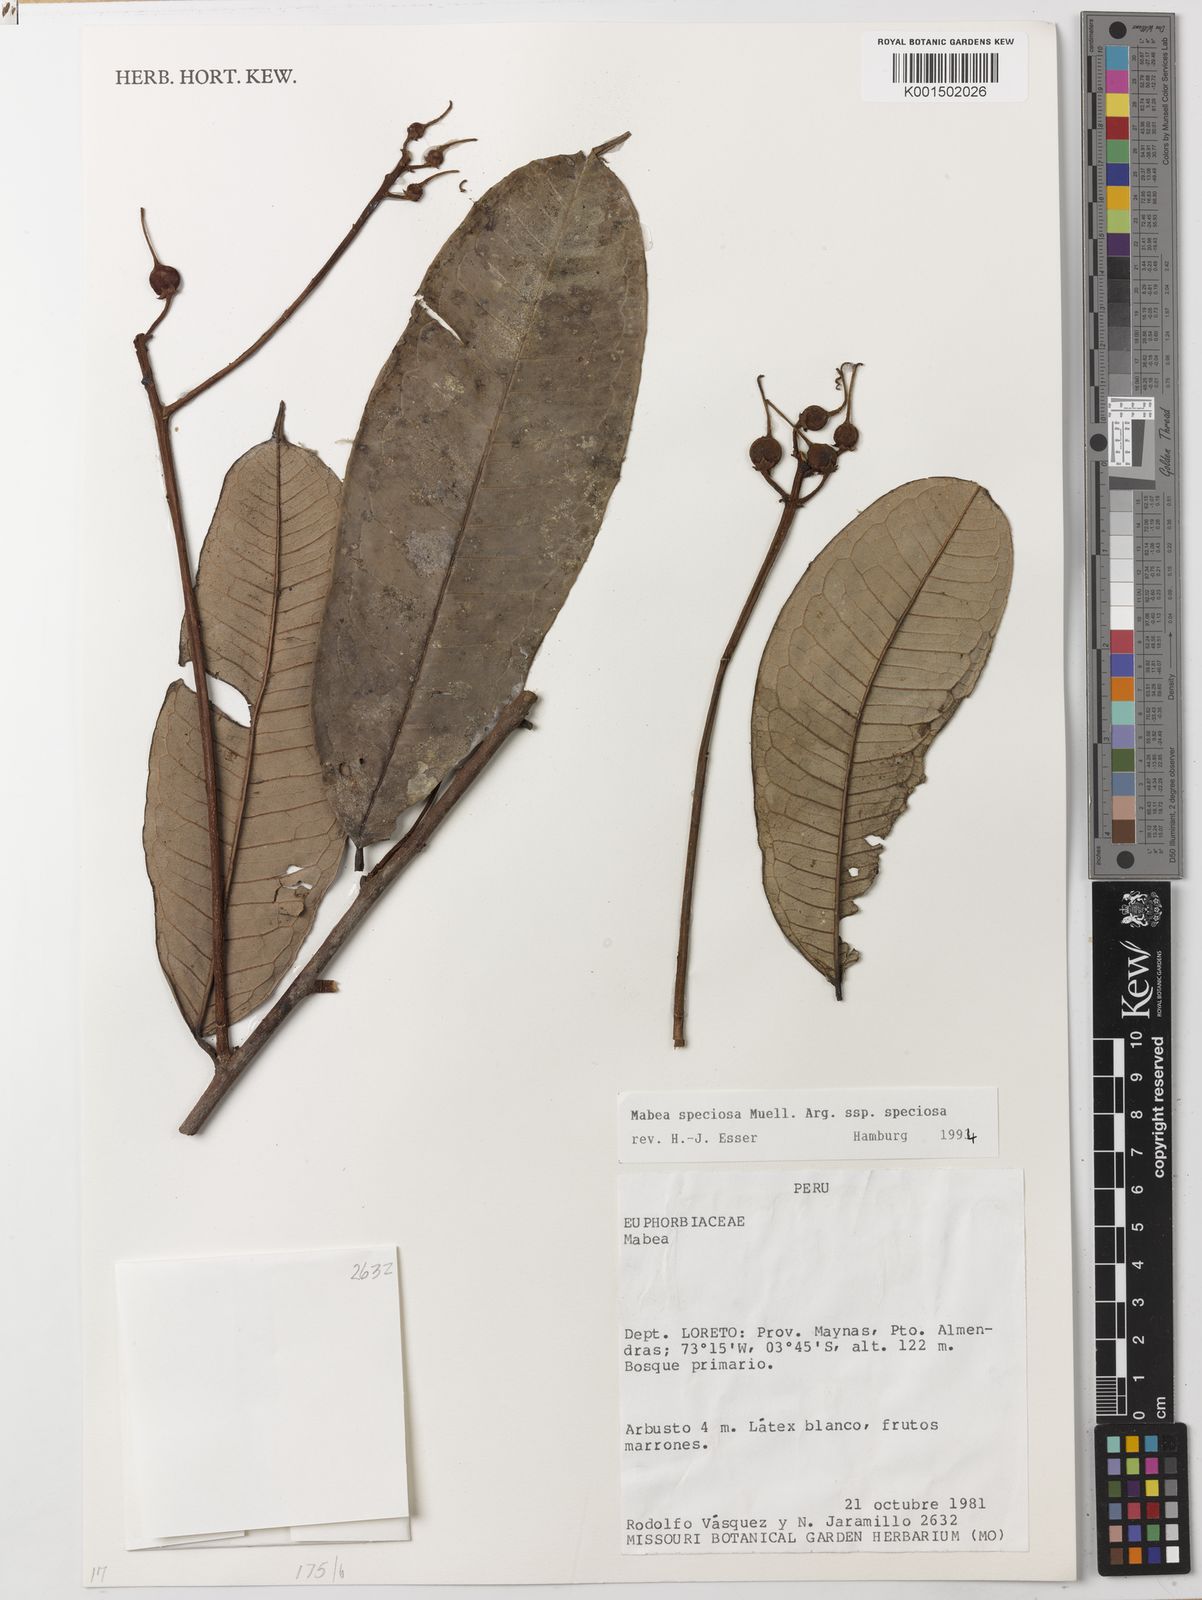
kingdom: Plantae
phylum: Tracheophyta
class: Magnoliopsida
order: Malpighiales
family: Euphorbiaceae
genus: Mabea
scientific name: Mabea speciosa
